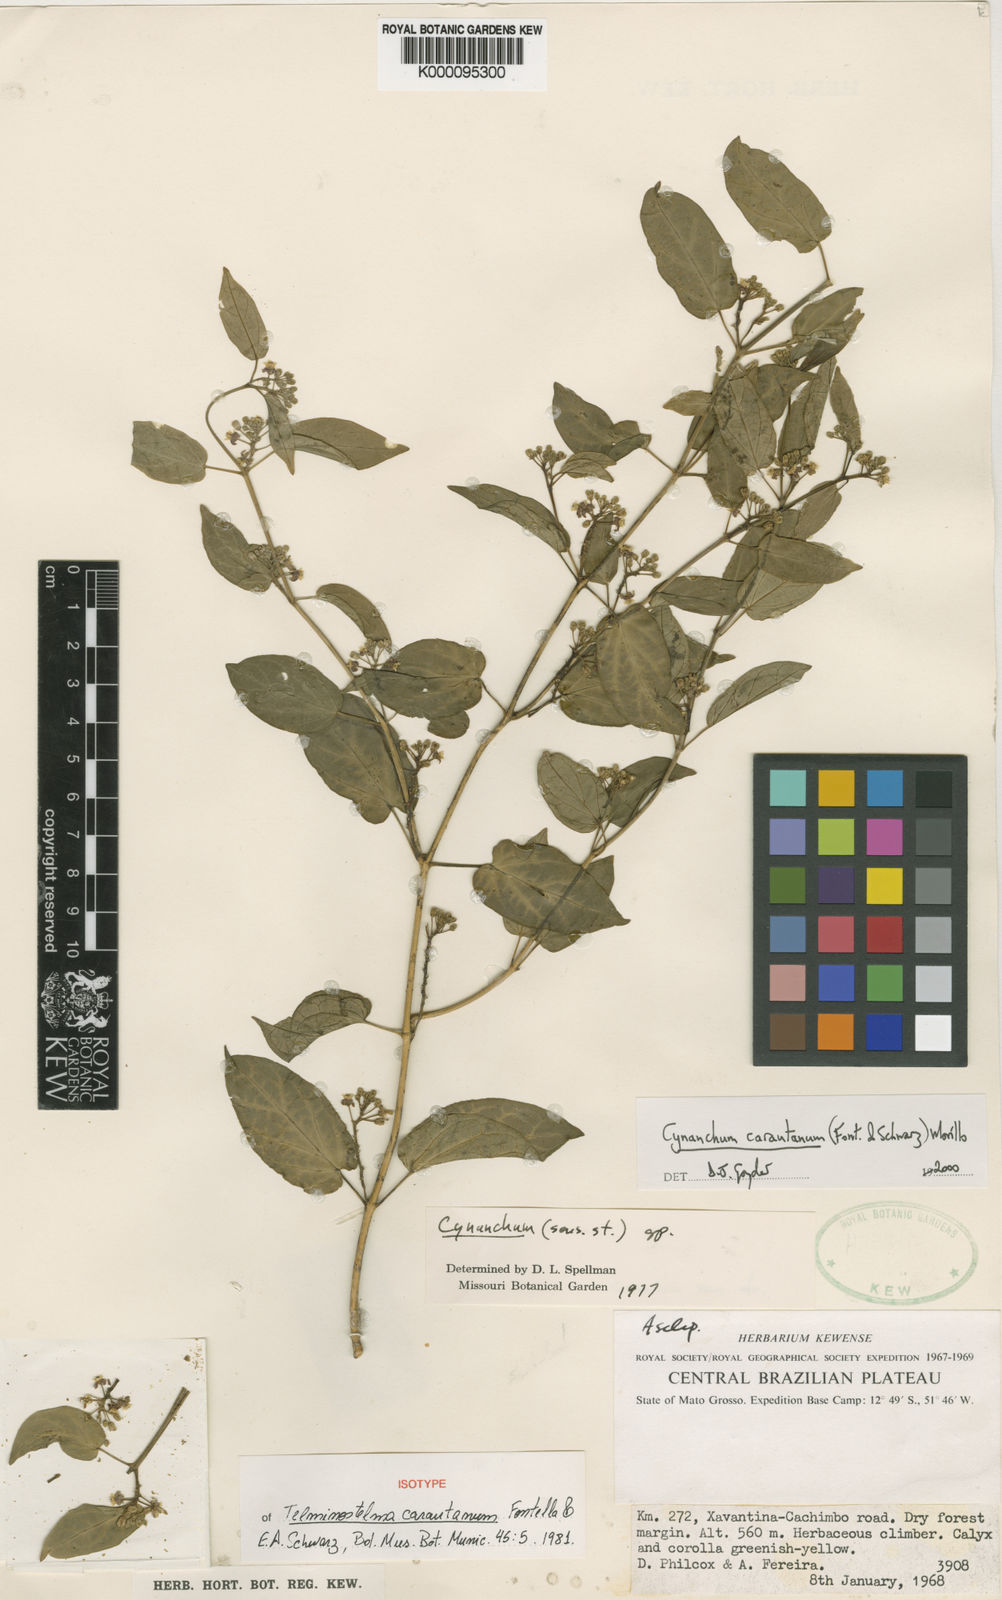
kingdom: Plantae
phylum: Tracheophyta
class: Magnoliopsida
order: Gentianales
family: Apocynaceae
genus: Cynanchum
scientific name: Cynanchum carautanum
